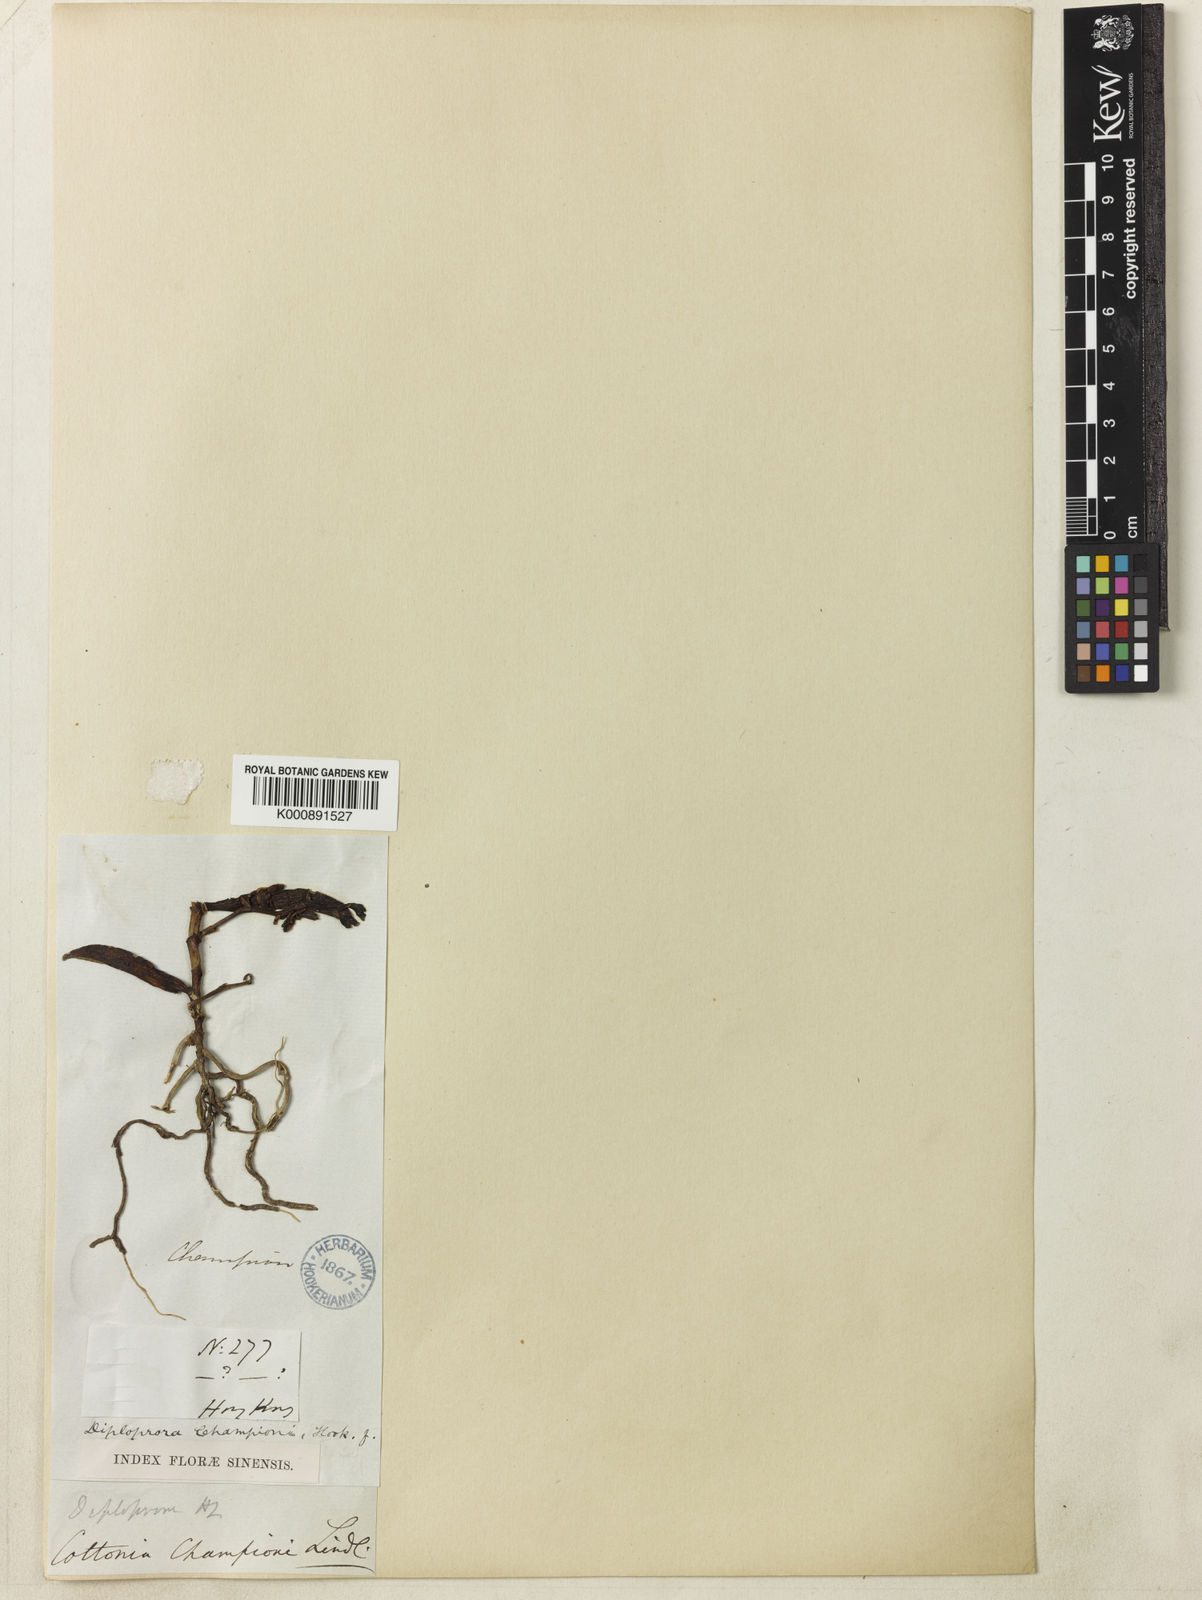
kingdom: Plantae
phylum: Tracheophyta
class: Liliopsida
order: Asparagales
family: Orchidaceae
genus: Diploprora
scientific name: Diploprora championii
